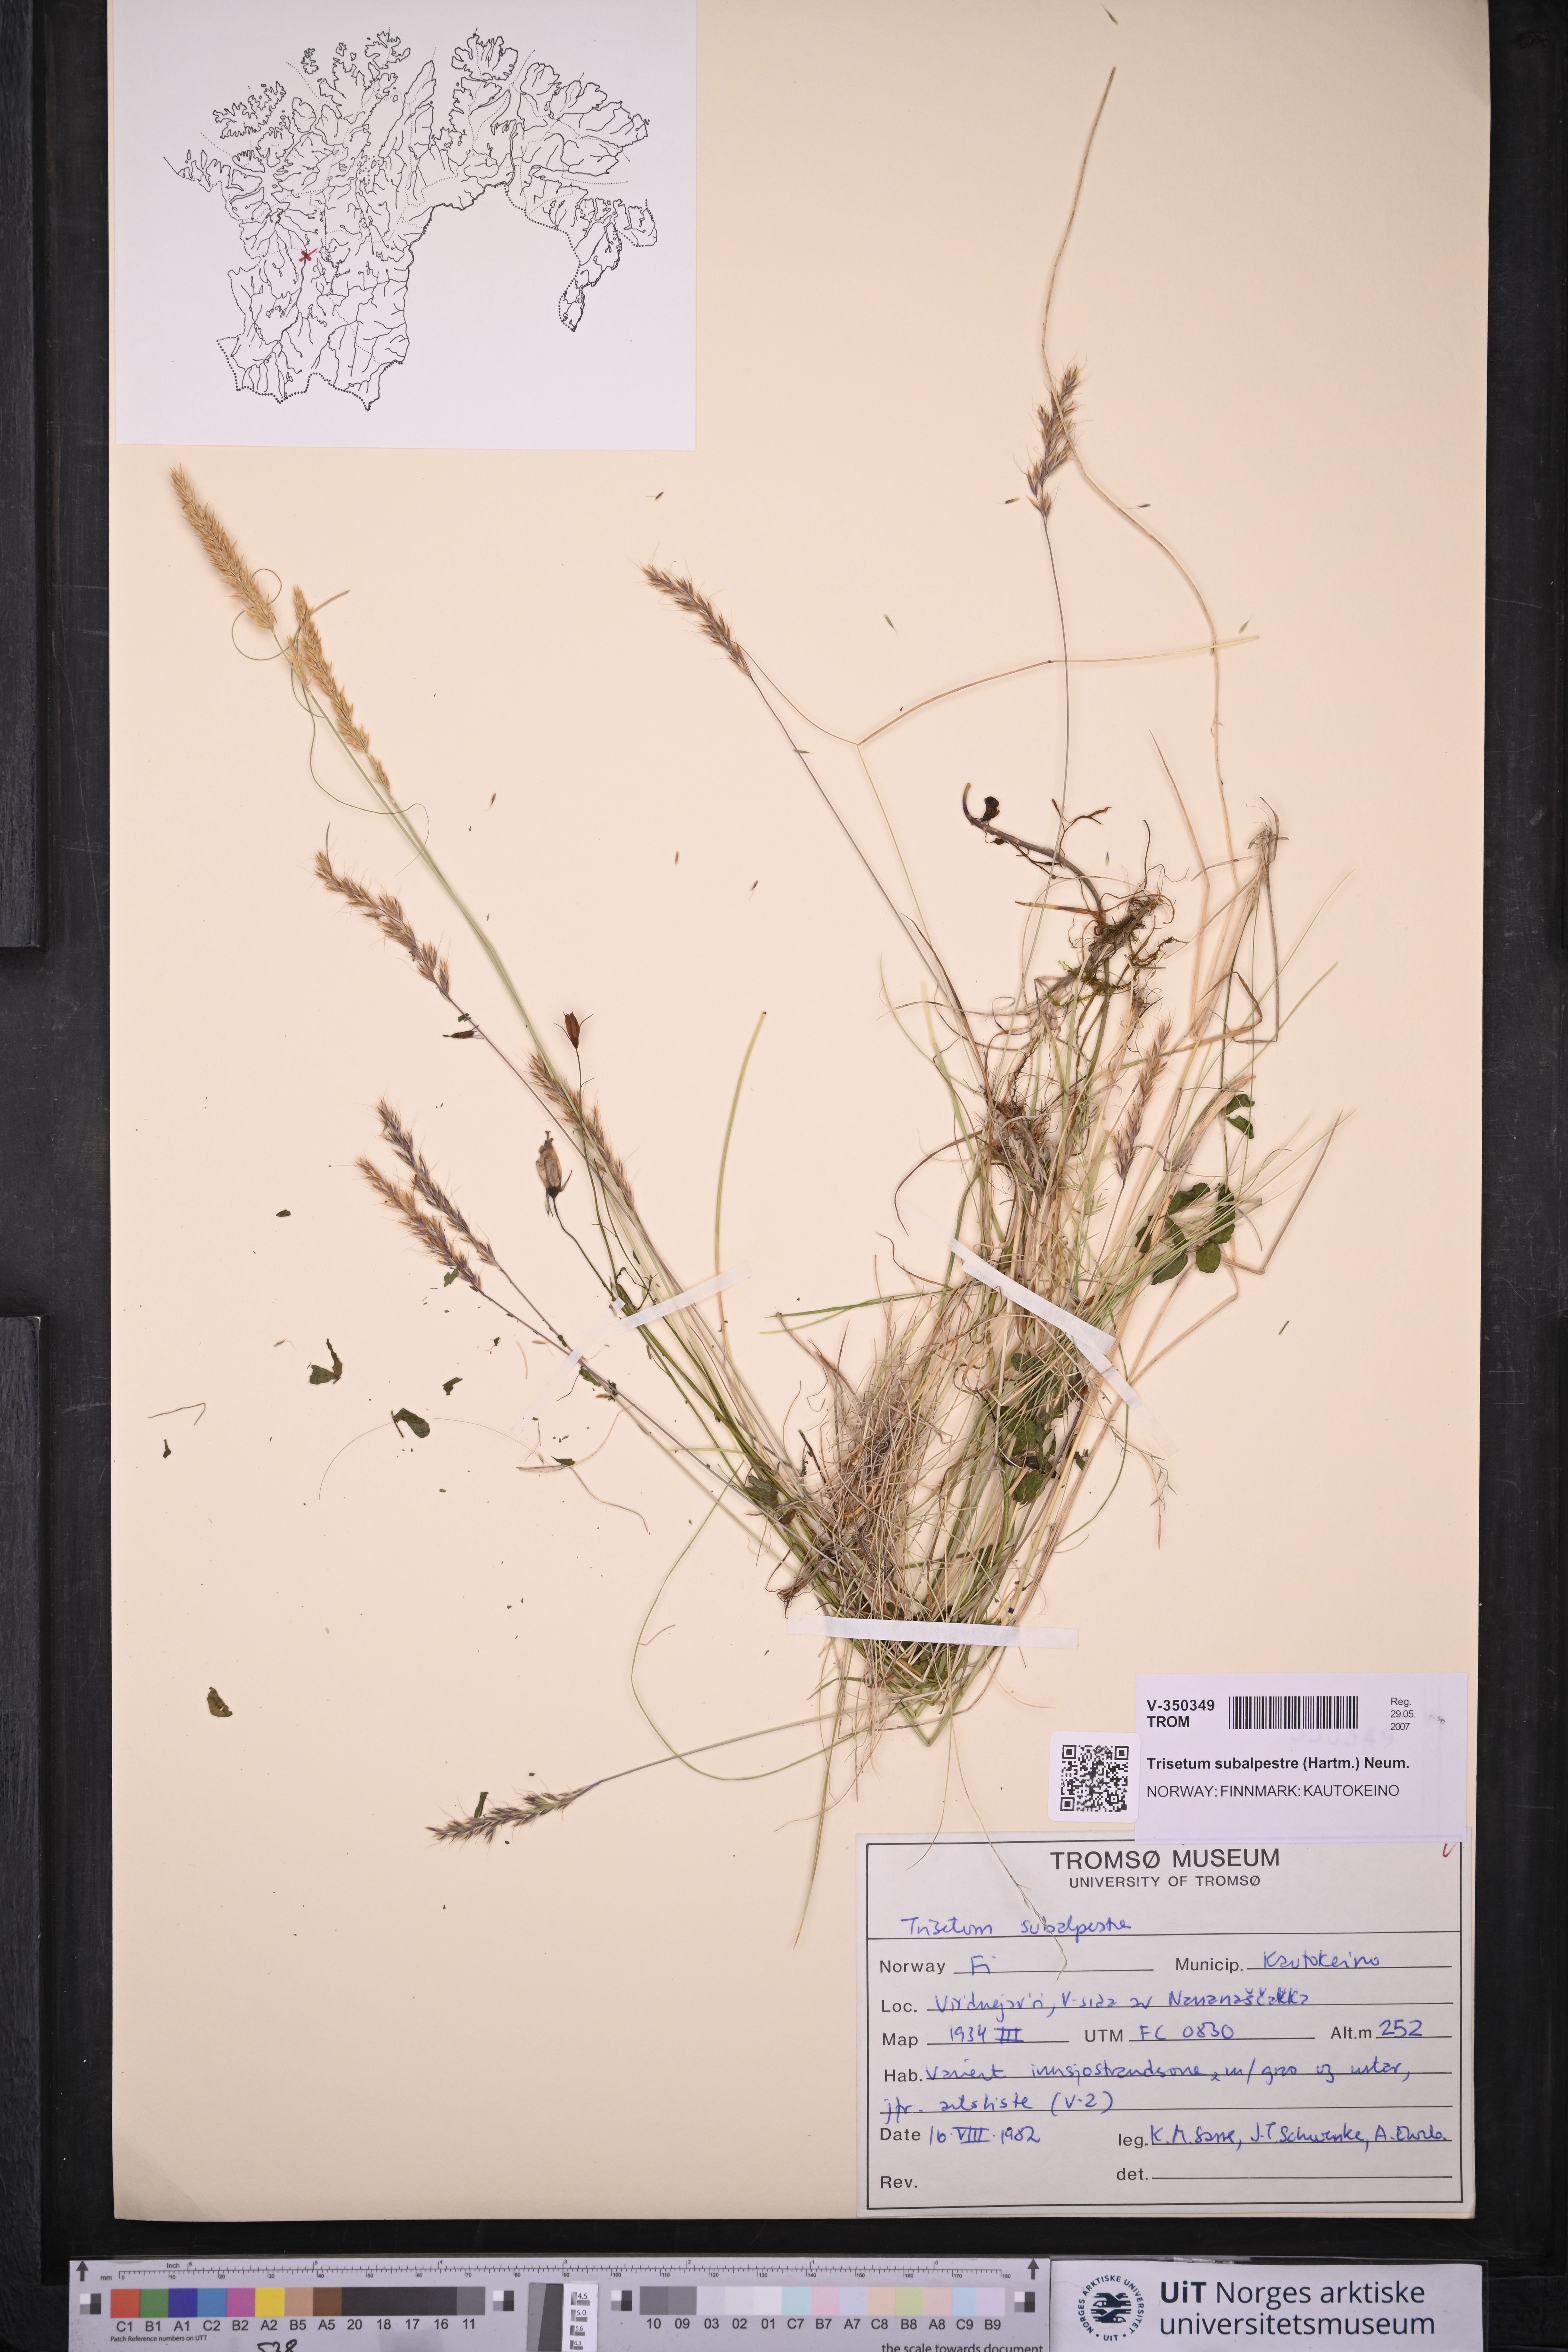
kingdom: Plantae
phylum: Tracheophyta
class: Liliopsida
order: Poales
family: Poaceae
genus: Koeleria
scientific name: Koeleria subalpestris
